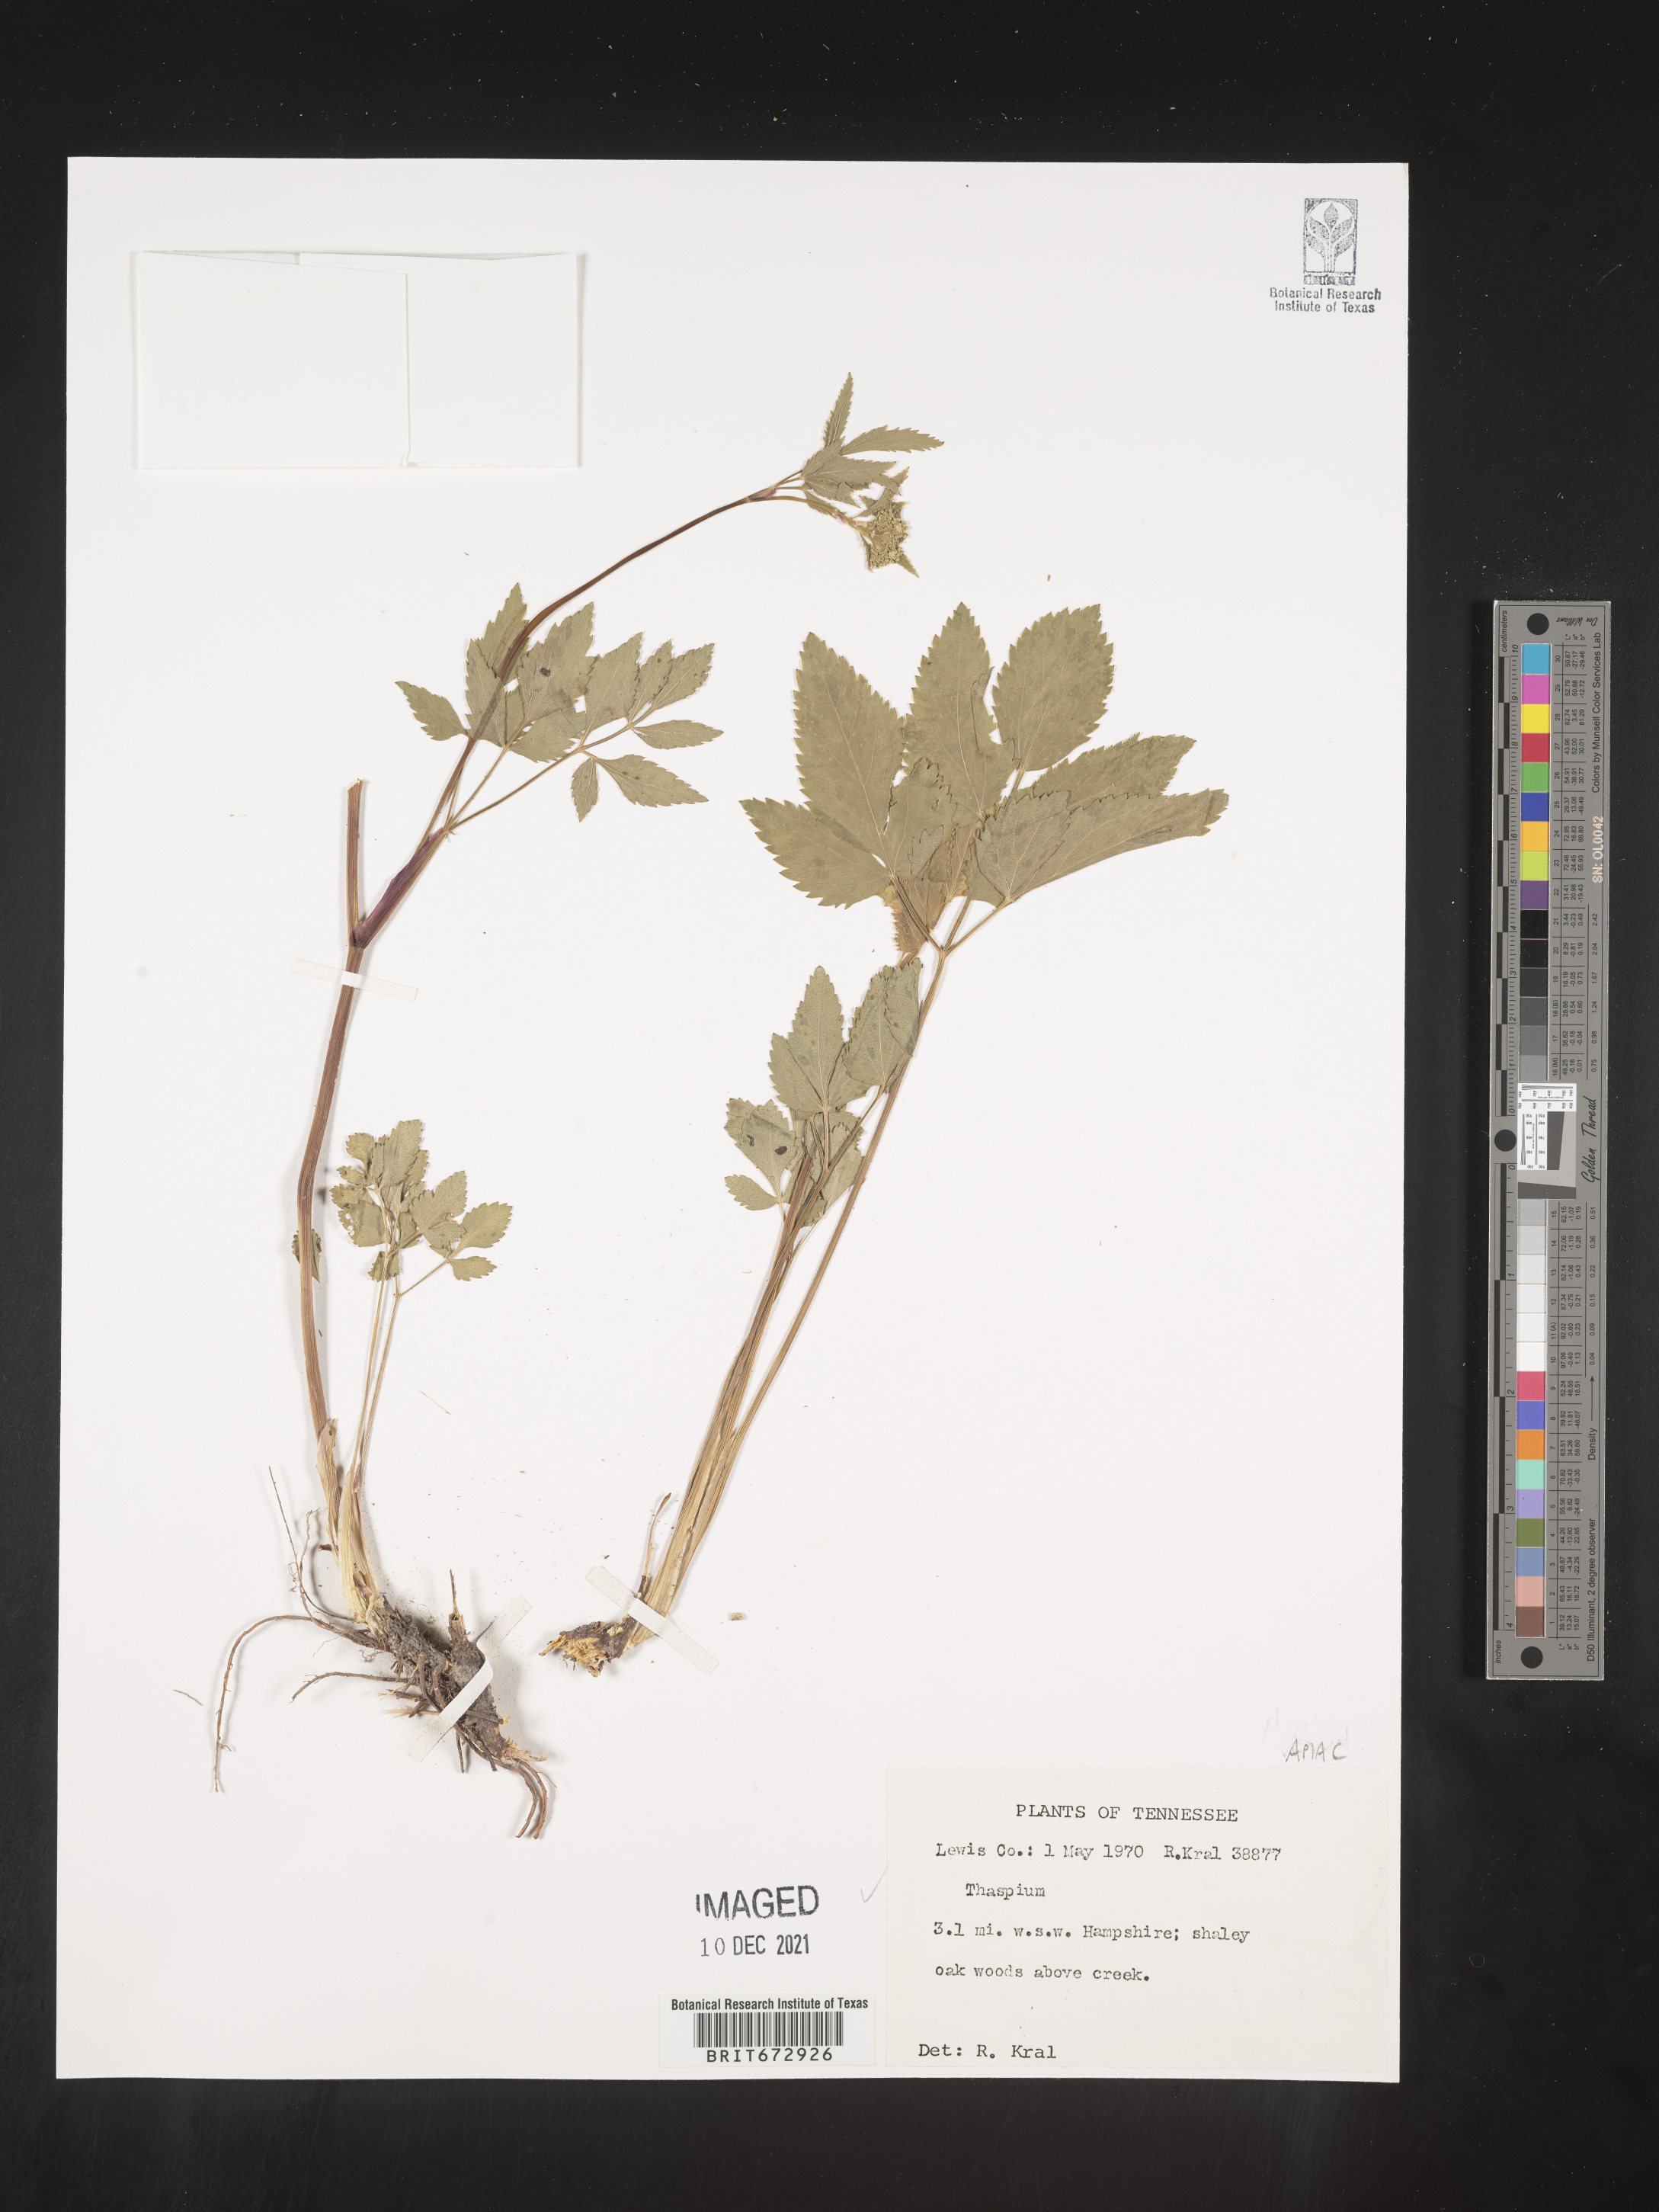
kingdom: Plantae
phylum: Tracheophyta
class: Magnoliopsida
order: Apiales
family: Apiaceae
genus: Thaspium
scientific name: Thaspium
